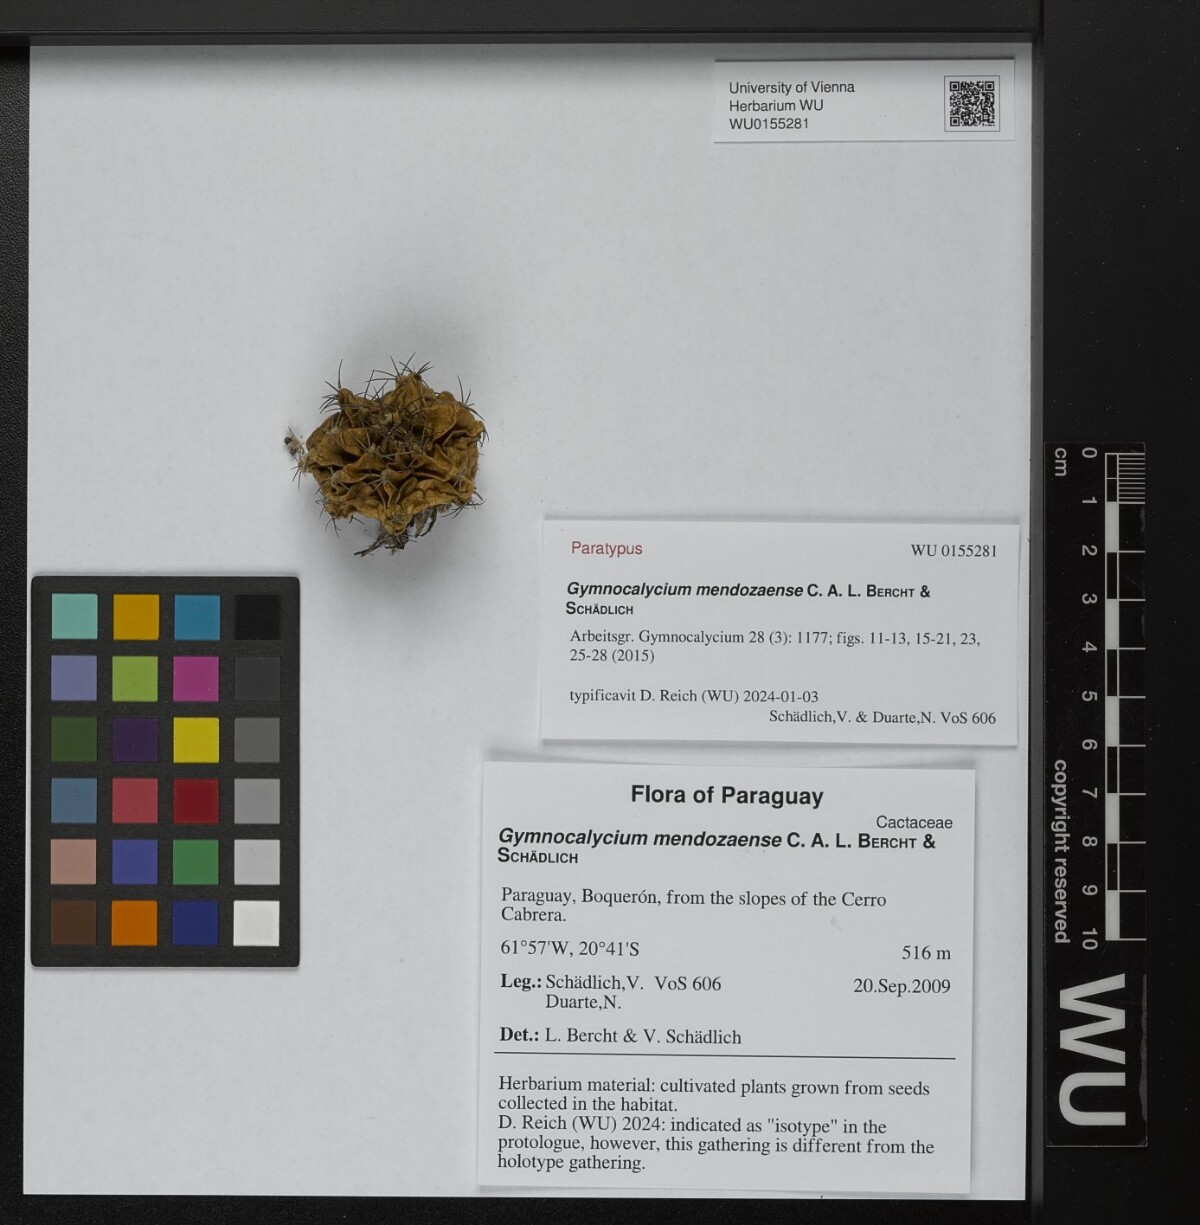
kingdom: Plantae
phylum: Tracheophyta
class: Magnoliopsida
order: Caryophyllales
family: Cactaceae
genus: Gymnocalycium
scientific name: Gymnocalycium mendozaense
